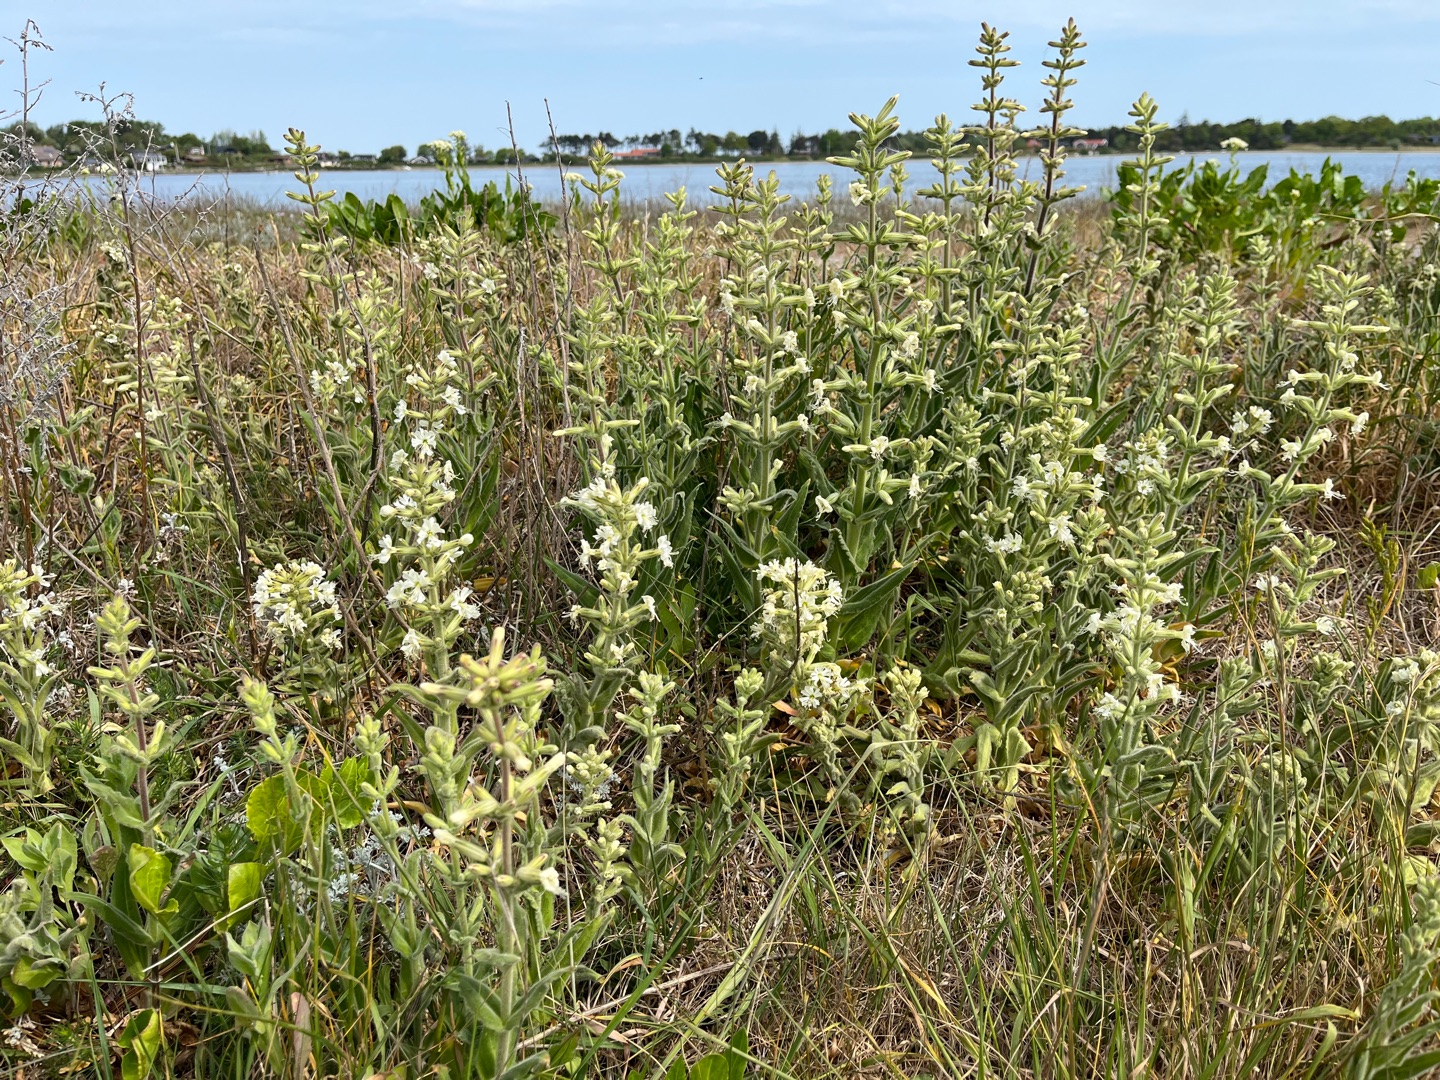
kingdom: Plantae
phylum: Tracheophyta
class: Magnoliopsida
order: Caryophyllales
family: Caryophyllaceae
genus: Silene
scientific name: Silene viscosa
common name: Klæbrig limurt
